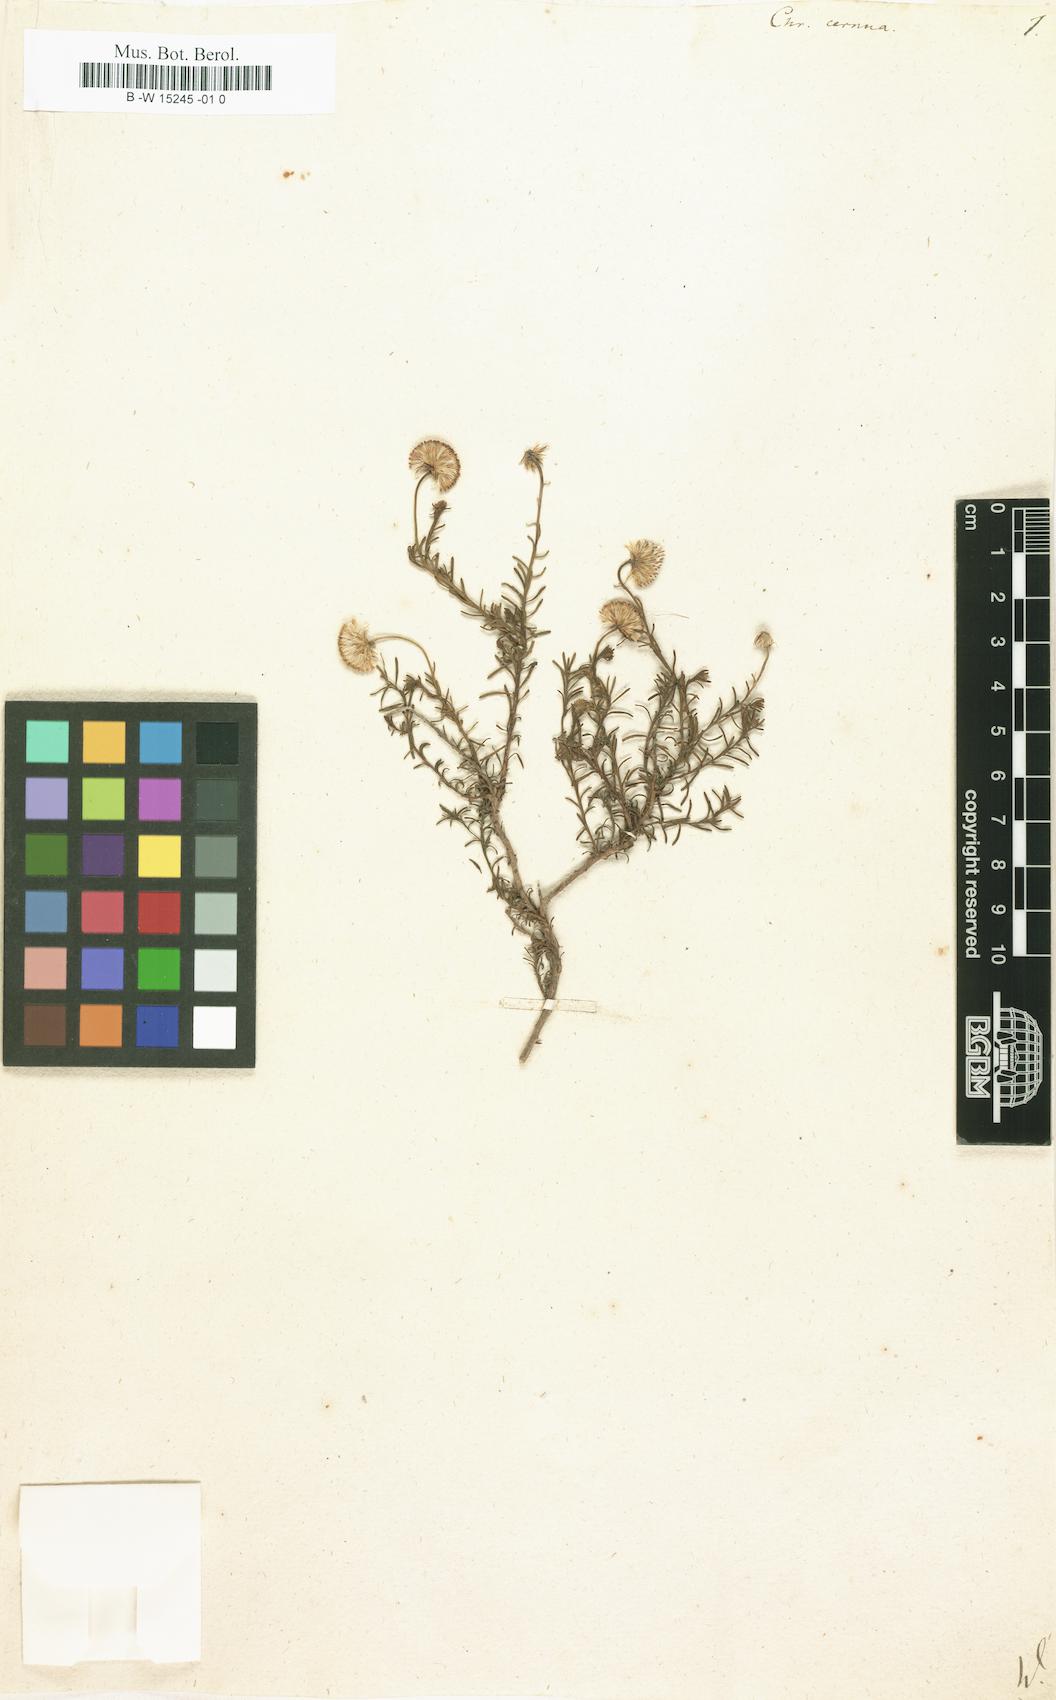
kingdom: Plantae
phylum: Tracheophyta
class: Magnoliopsida
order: Asterales
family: Asteraceae
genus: Chrysocoma
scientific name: Chrysocoma cernua
